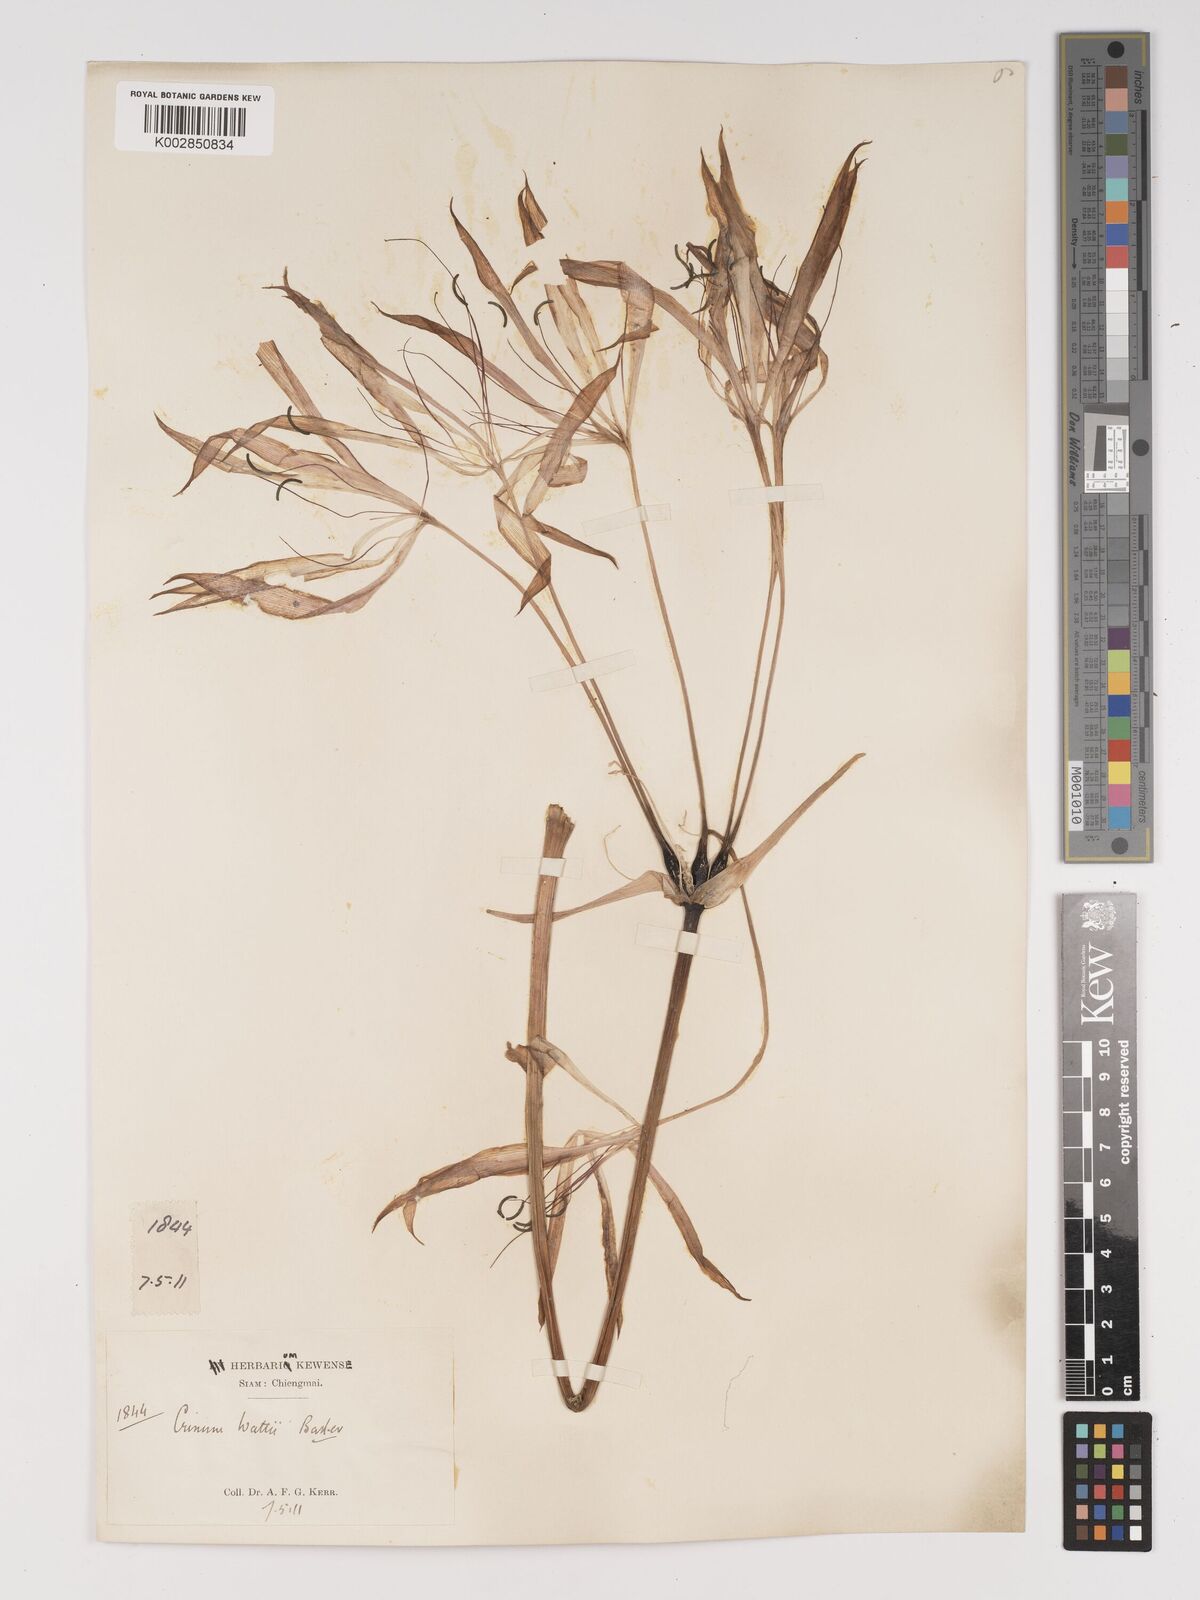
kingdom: Plantae
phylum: Tracheophyta
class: Liliopsida
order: Asparagales
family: Amaryllidaceae
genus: Crinum
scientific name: Crinum wattii
